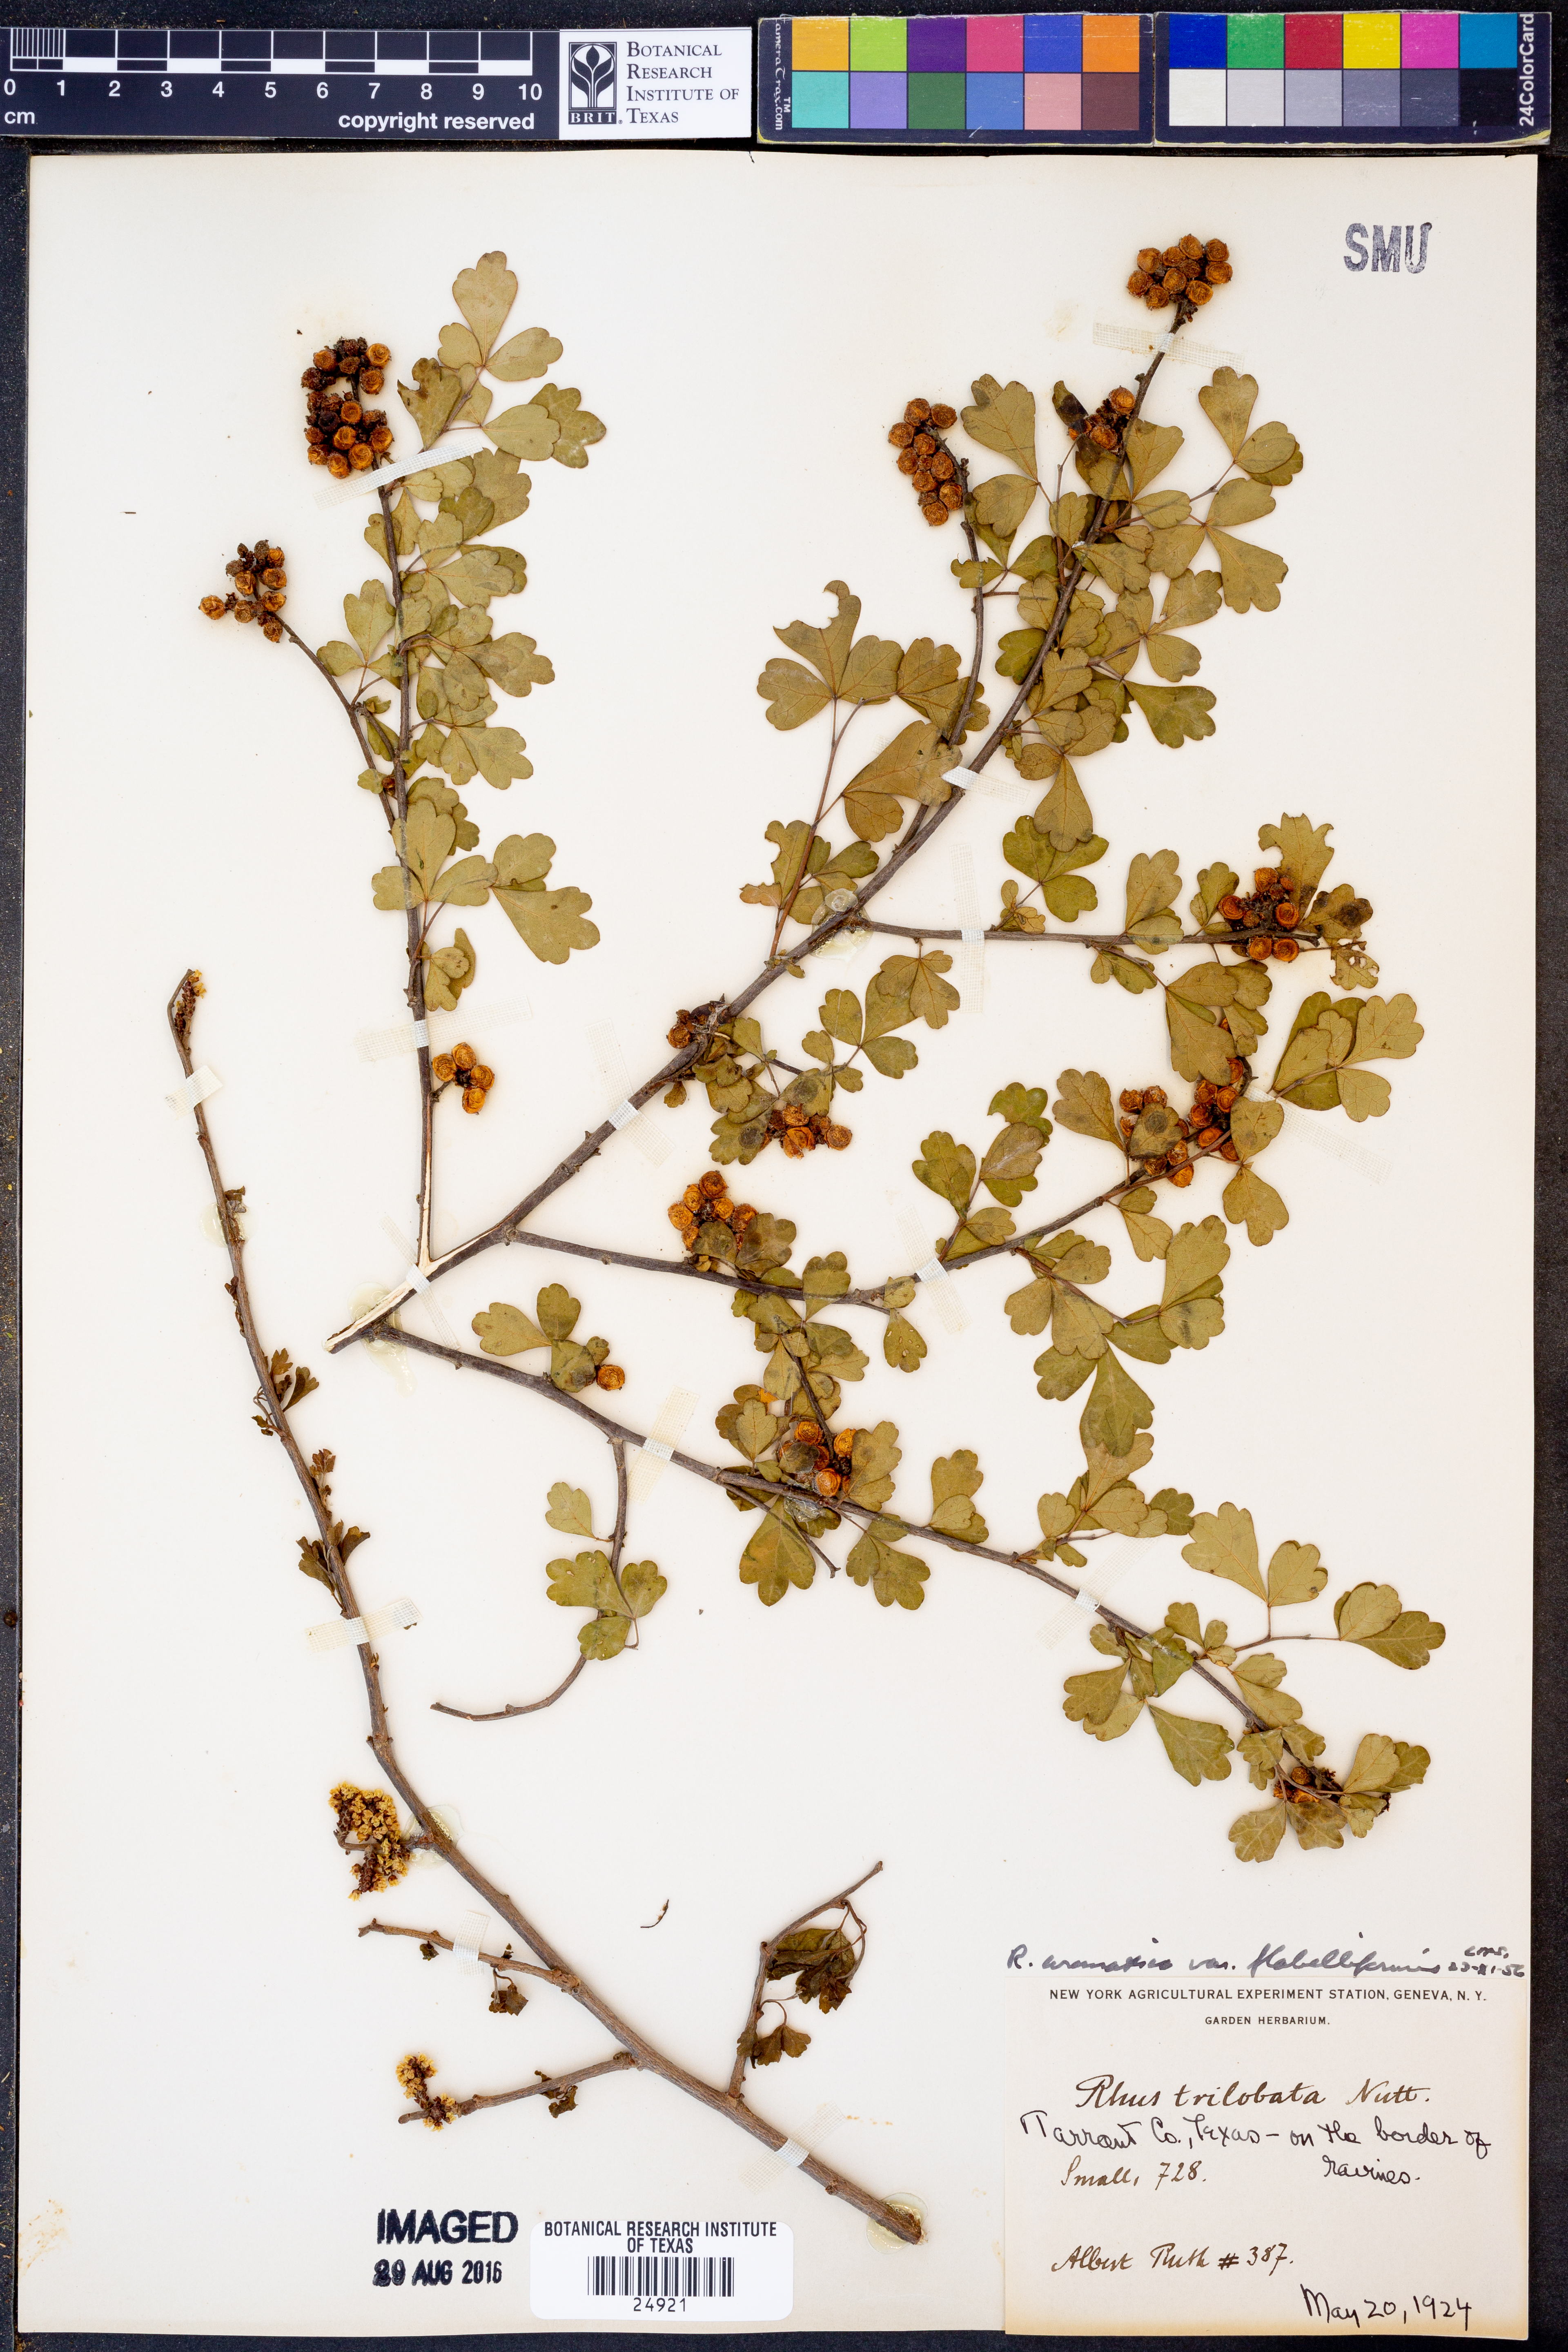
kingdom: Plantae
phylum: Tracheophyta
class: Magnoliopsida
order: Sapindales
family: Anacardiaceae
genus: Rhus
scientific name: Rhus trilobata
